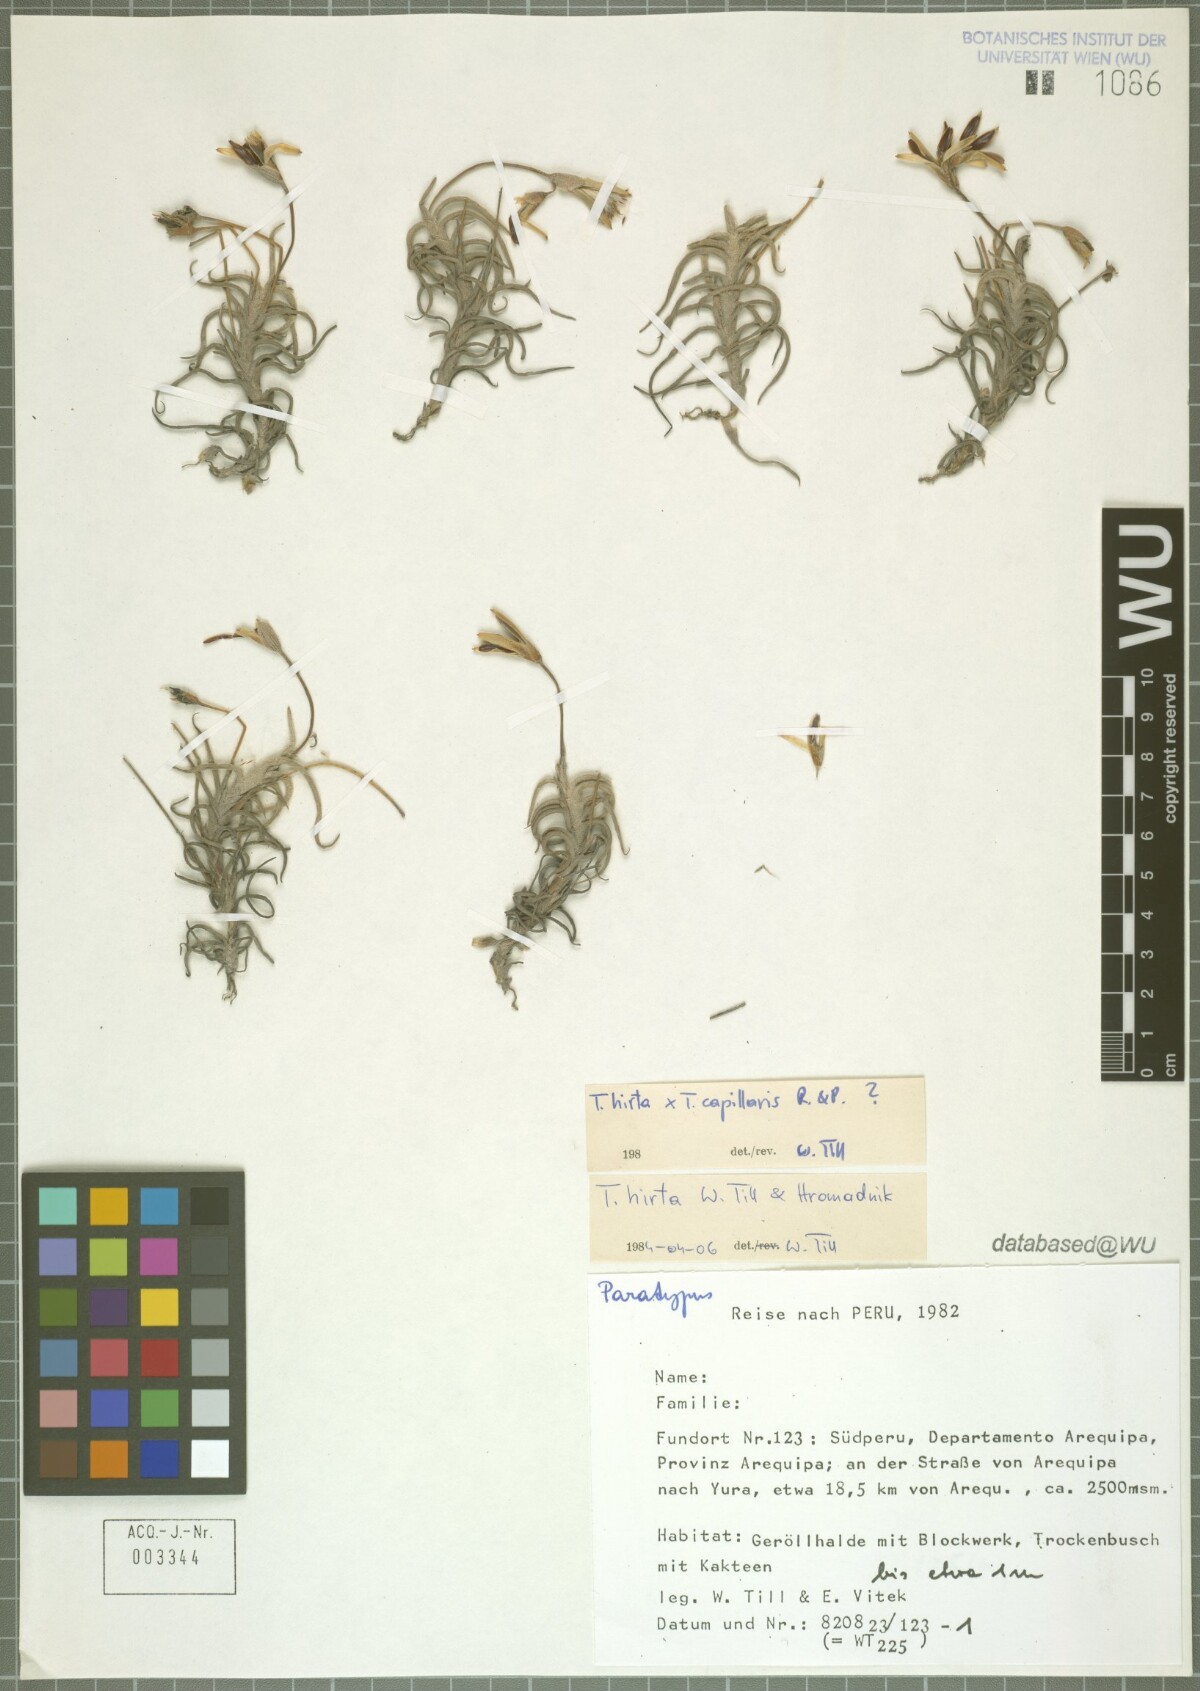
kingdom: Plantae
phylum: Tracheophyta
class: Liliopsida
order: Poales
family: Bromeliaceae
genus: Tillandsia
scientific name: Tillandsia hirta
